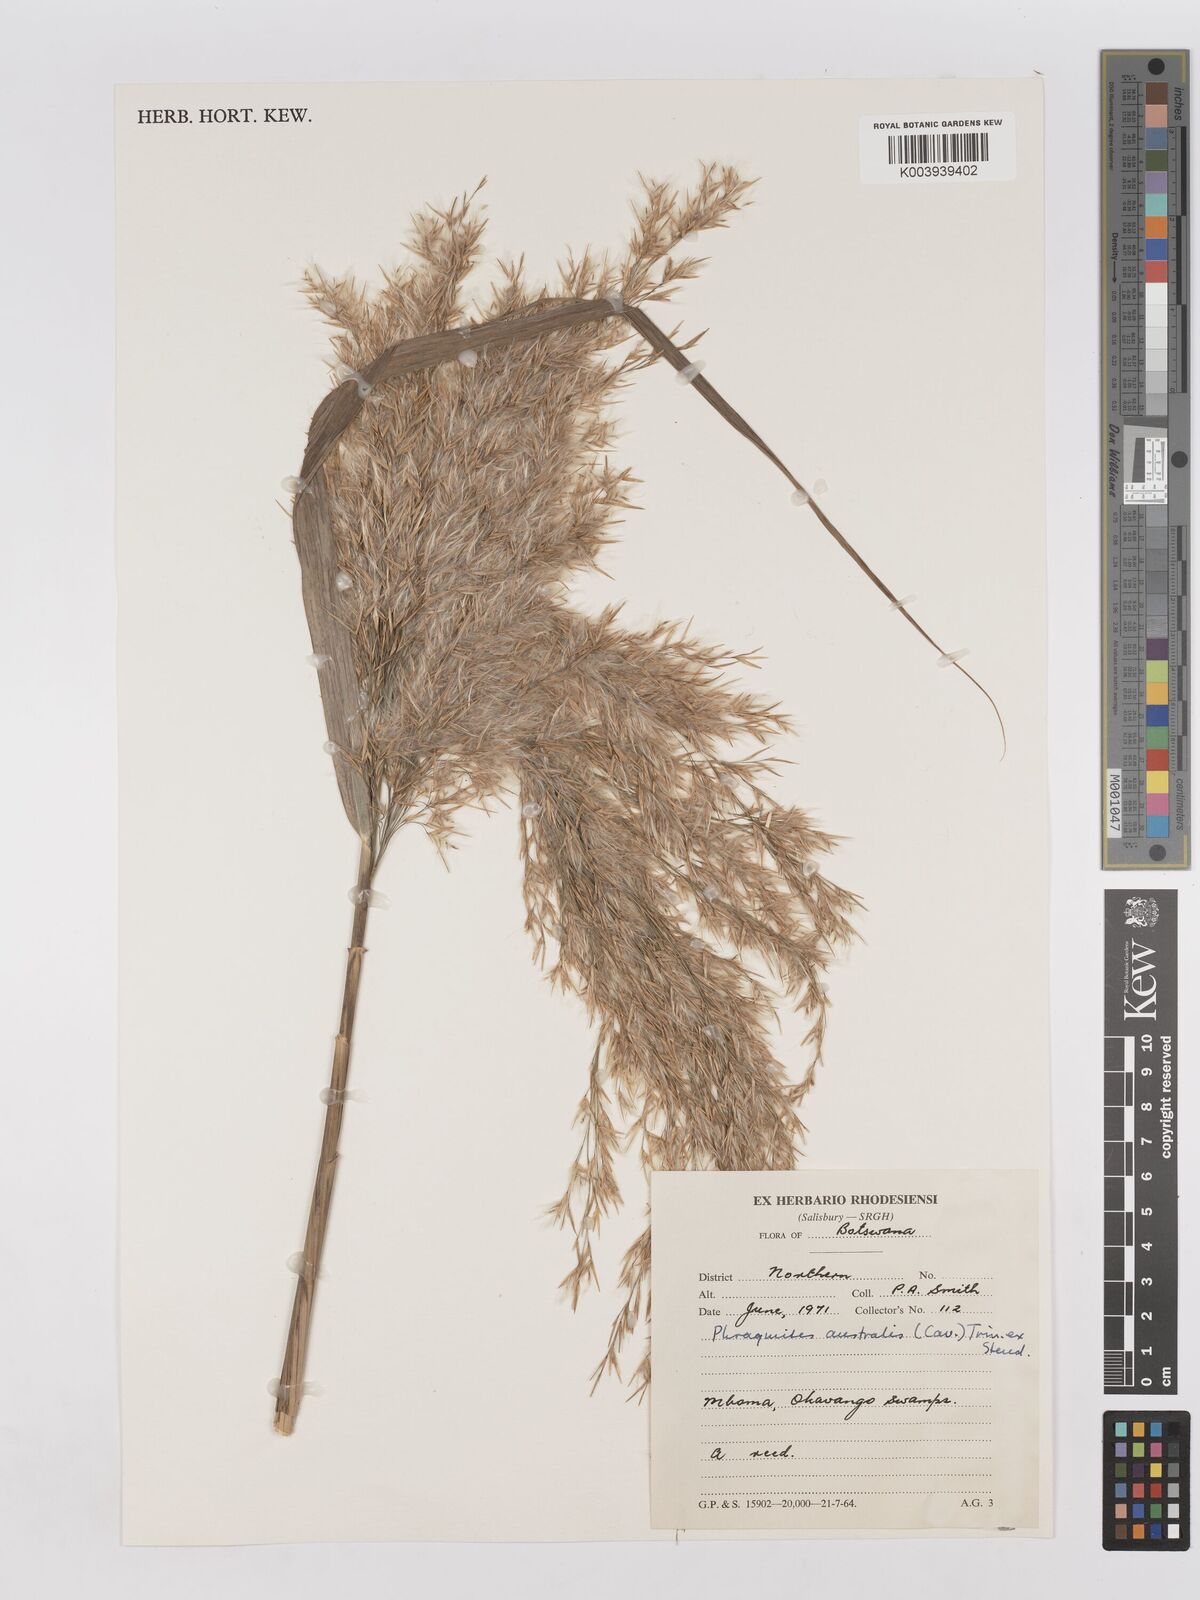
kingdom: Plantae
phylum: Tracheophyta
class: Liliopsida
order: Poales
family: Poaceae
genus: Phragmites
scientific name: Phragmites australis
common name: Common reed
